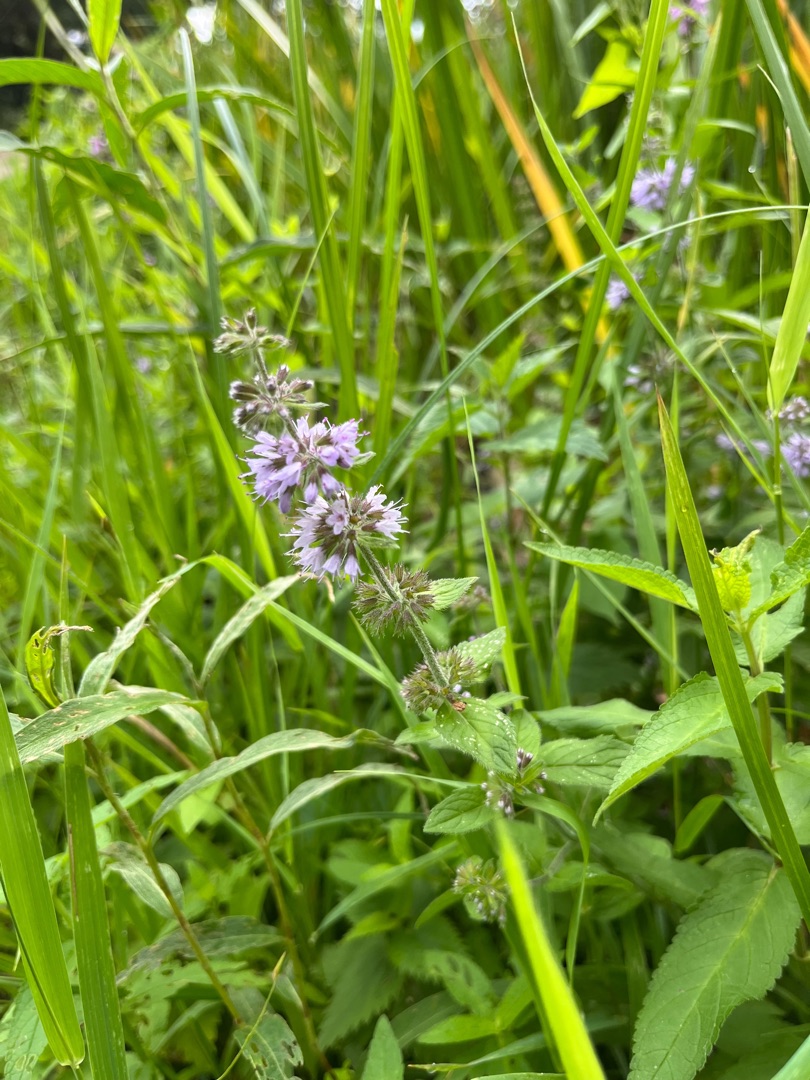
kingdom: Plantae
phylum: Tracheophyta
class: Magnoliopsida
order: Lamiales
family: Lamiaceae
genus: Mentha
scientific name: Mentha verticillata
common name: Krans-mynte
